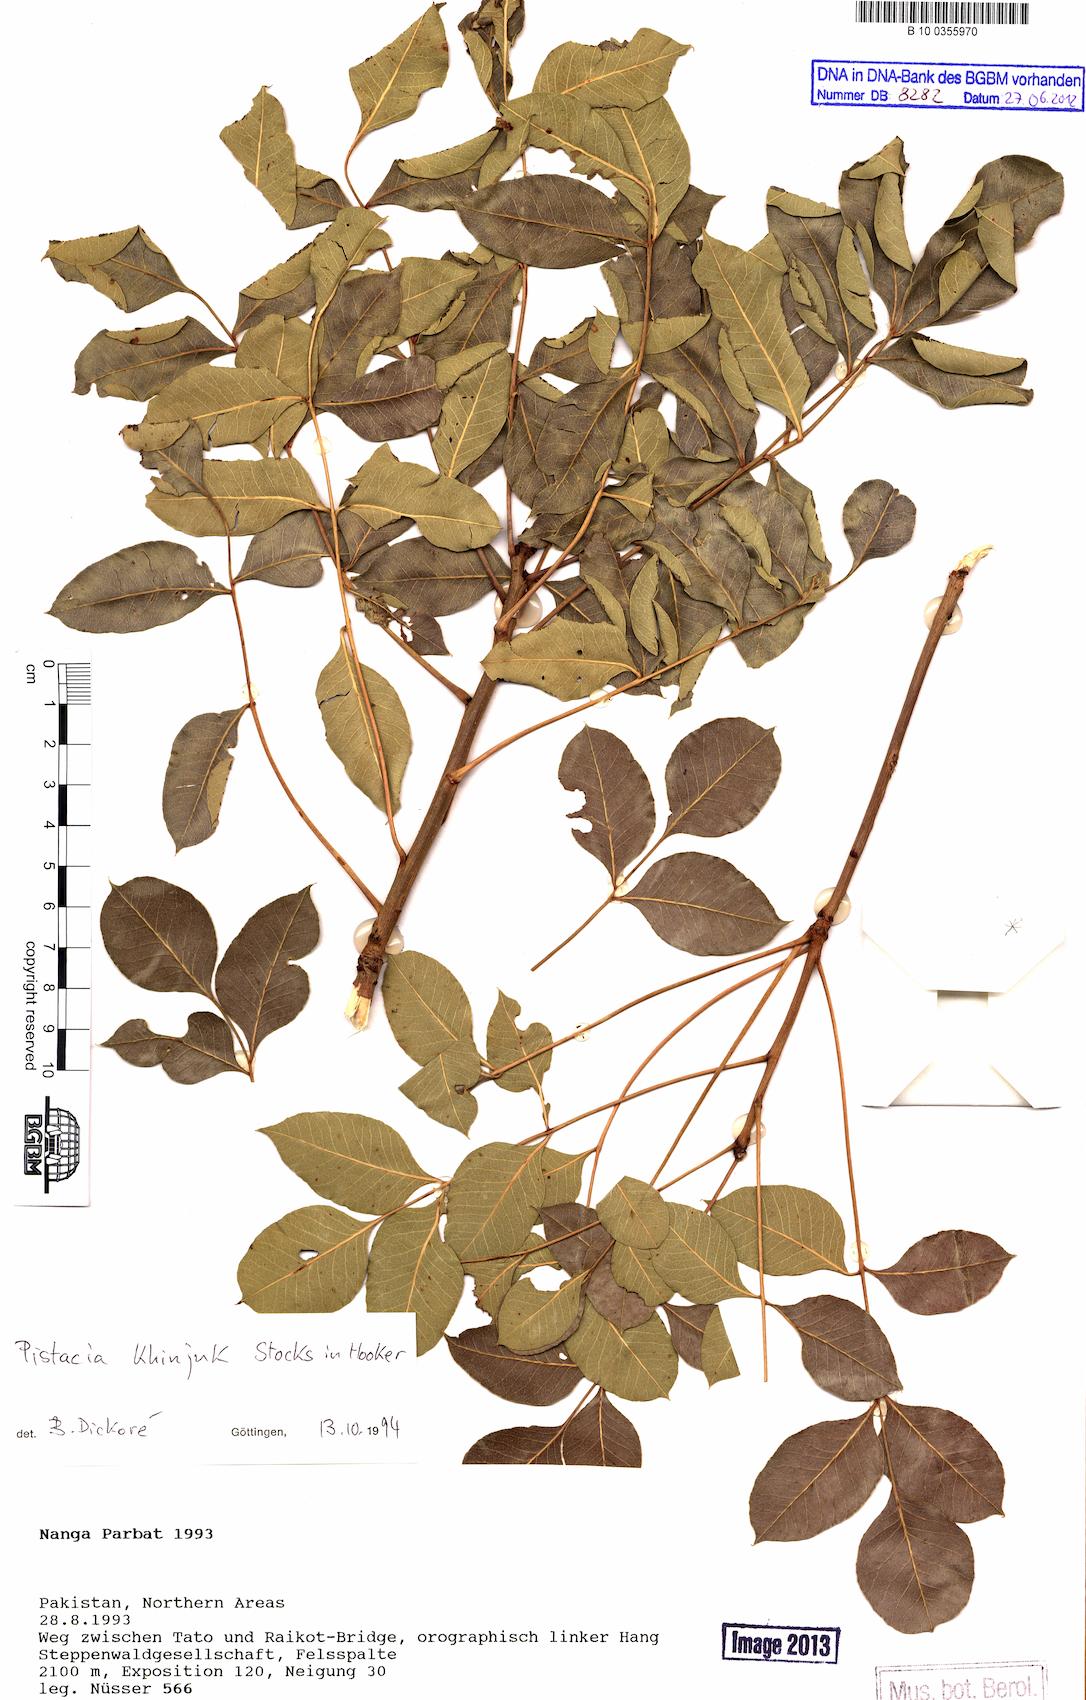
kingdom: Plantae
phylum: Tracheophyta
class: Magnoliopsida
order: Sapindales
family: Anacardiaceae
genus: Pistacia
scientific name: Pistacia khinjuk
